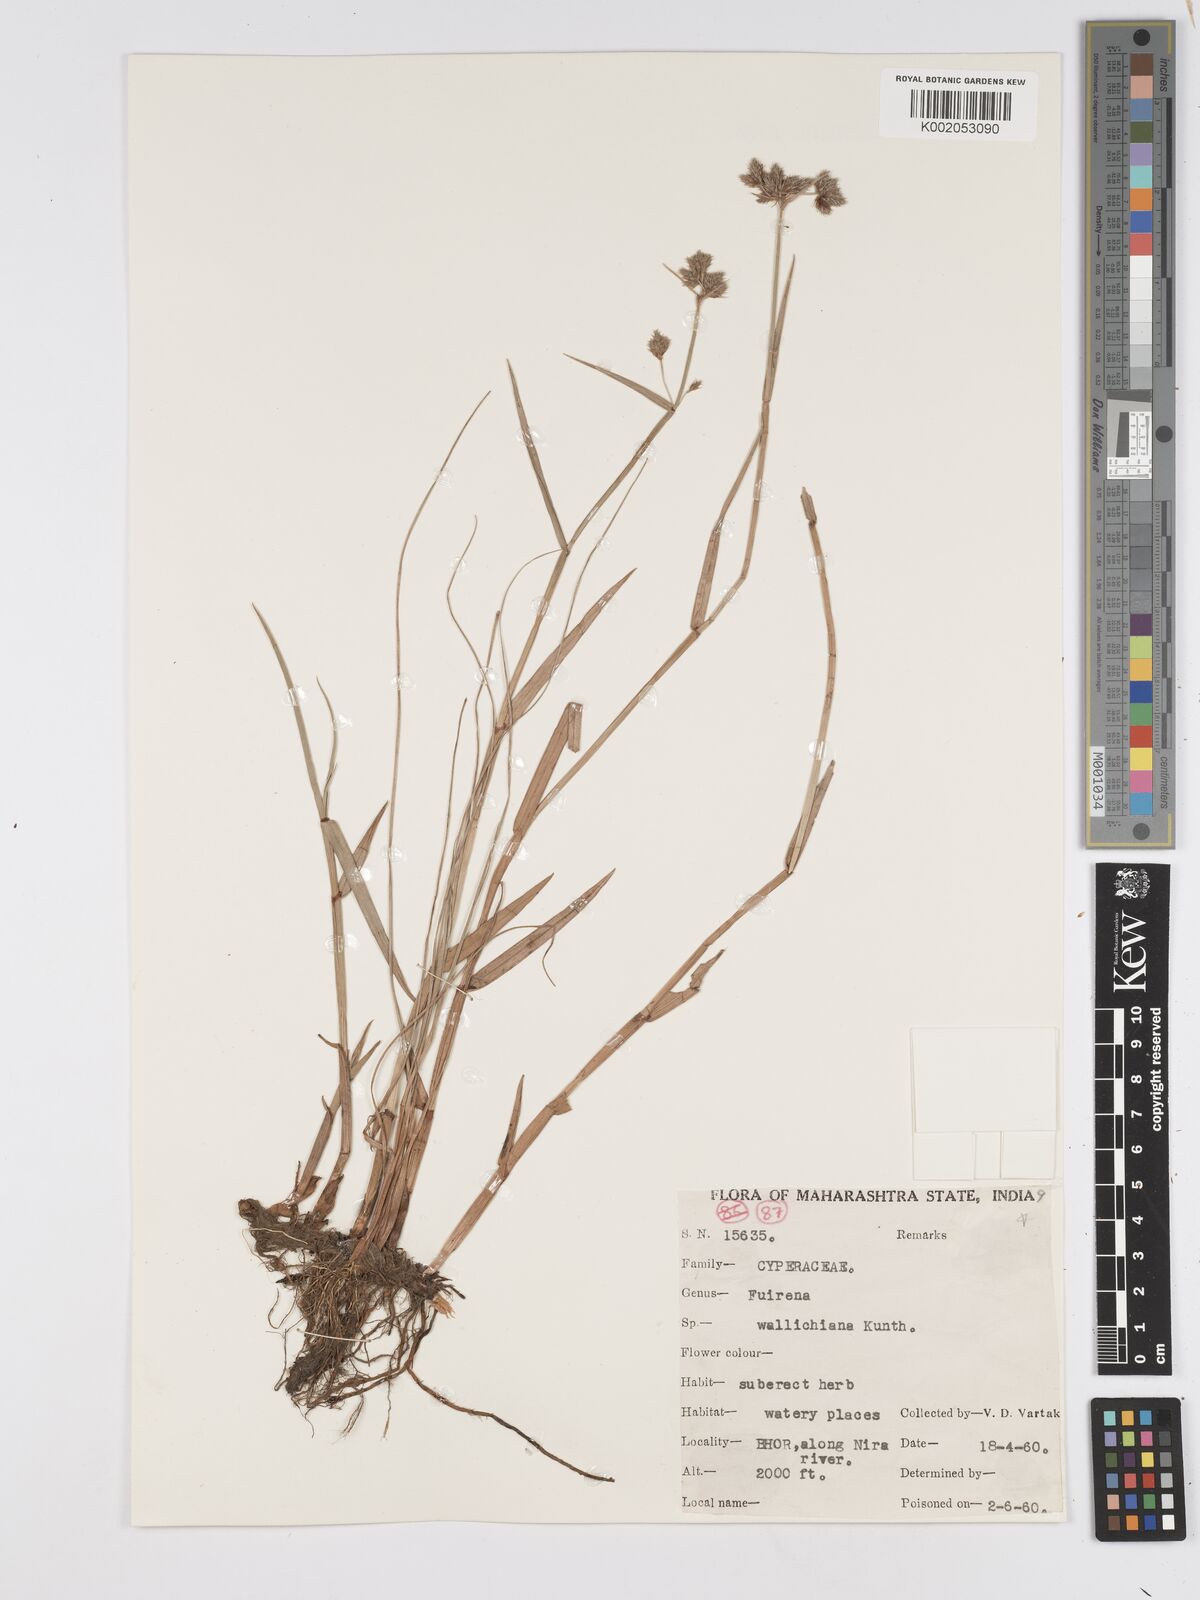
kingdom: Plantae
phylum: Tracheophyta
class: Liliopsida
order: Poales
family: Cyperaceae
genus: Fuirena
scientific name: Fuirena cuspidata
